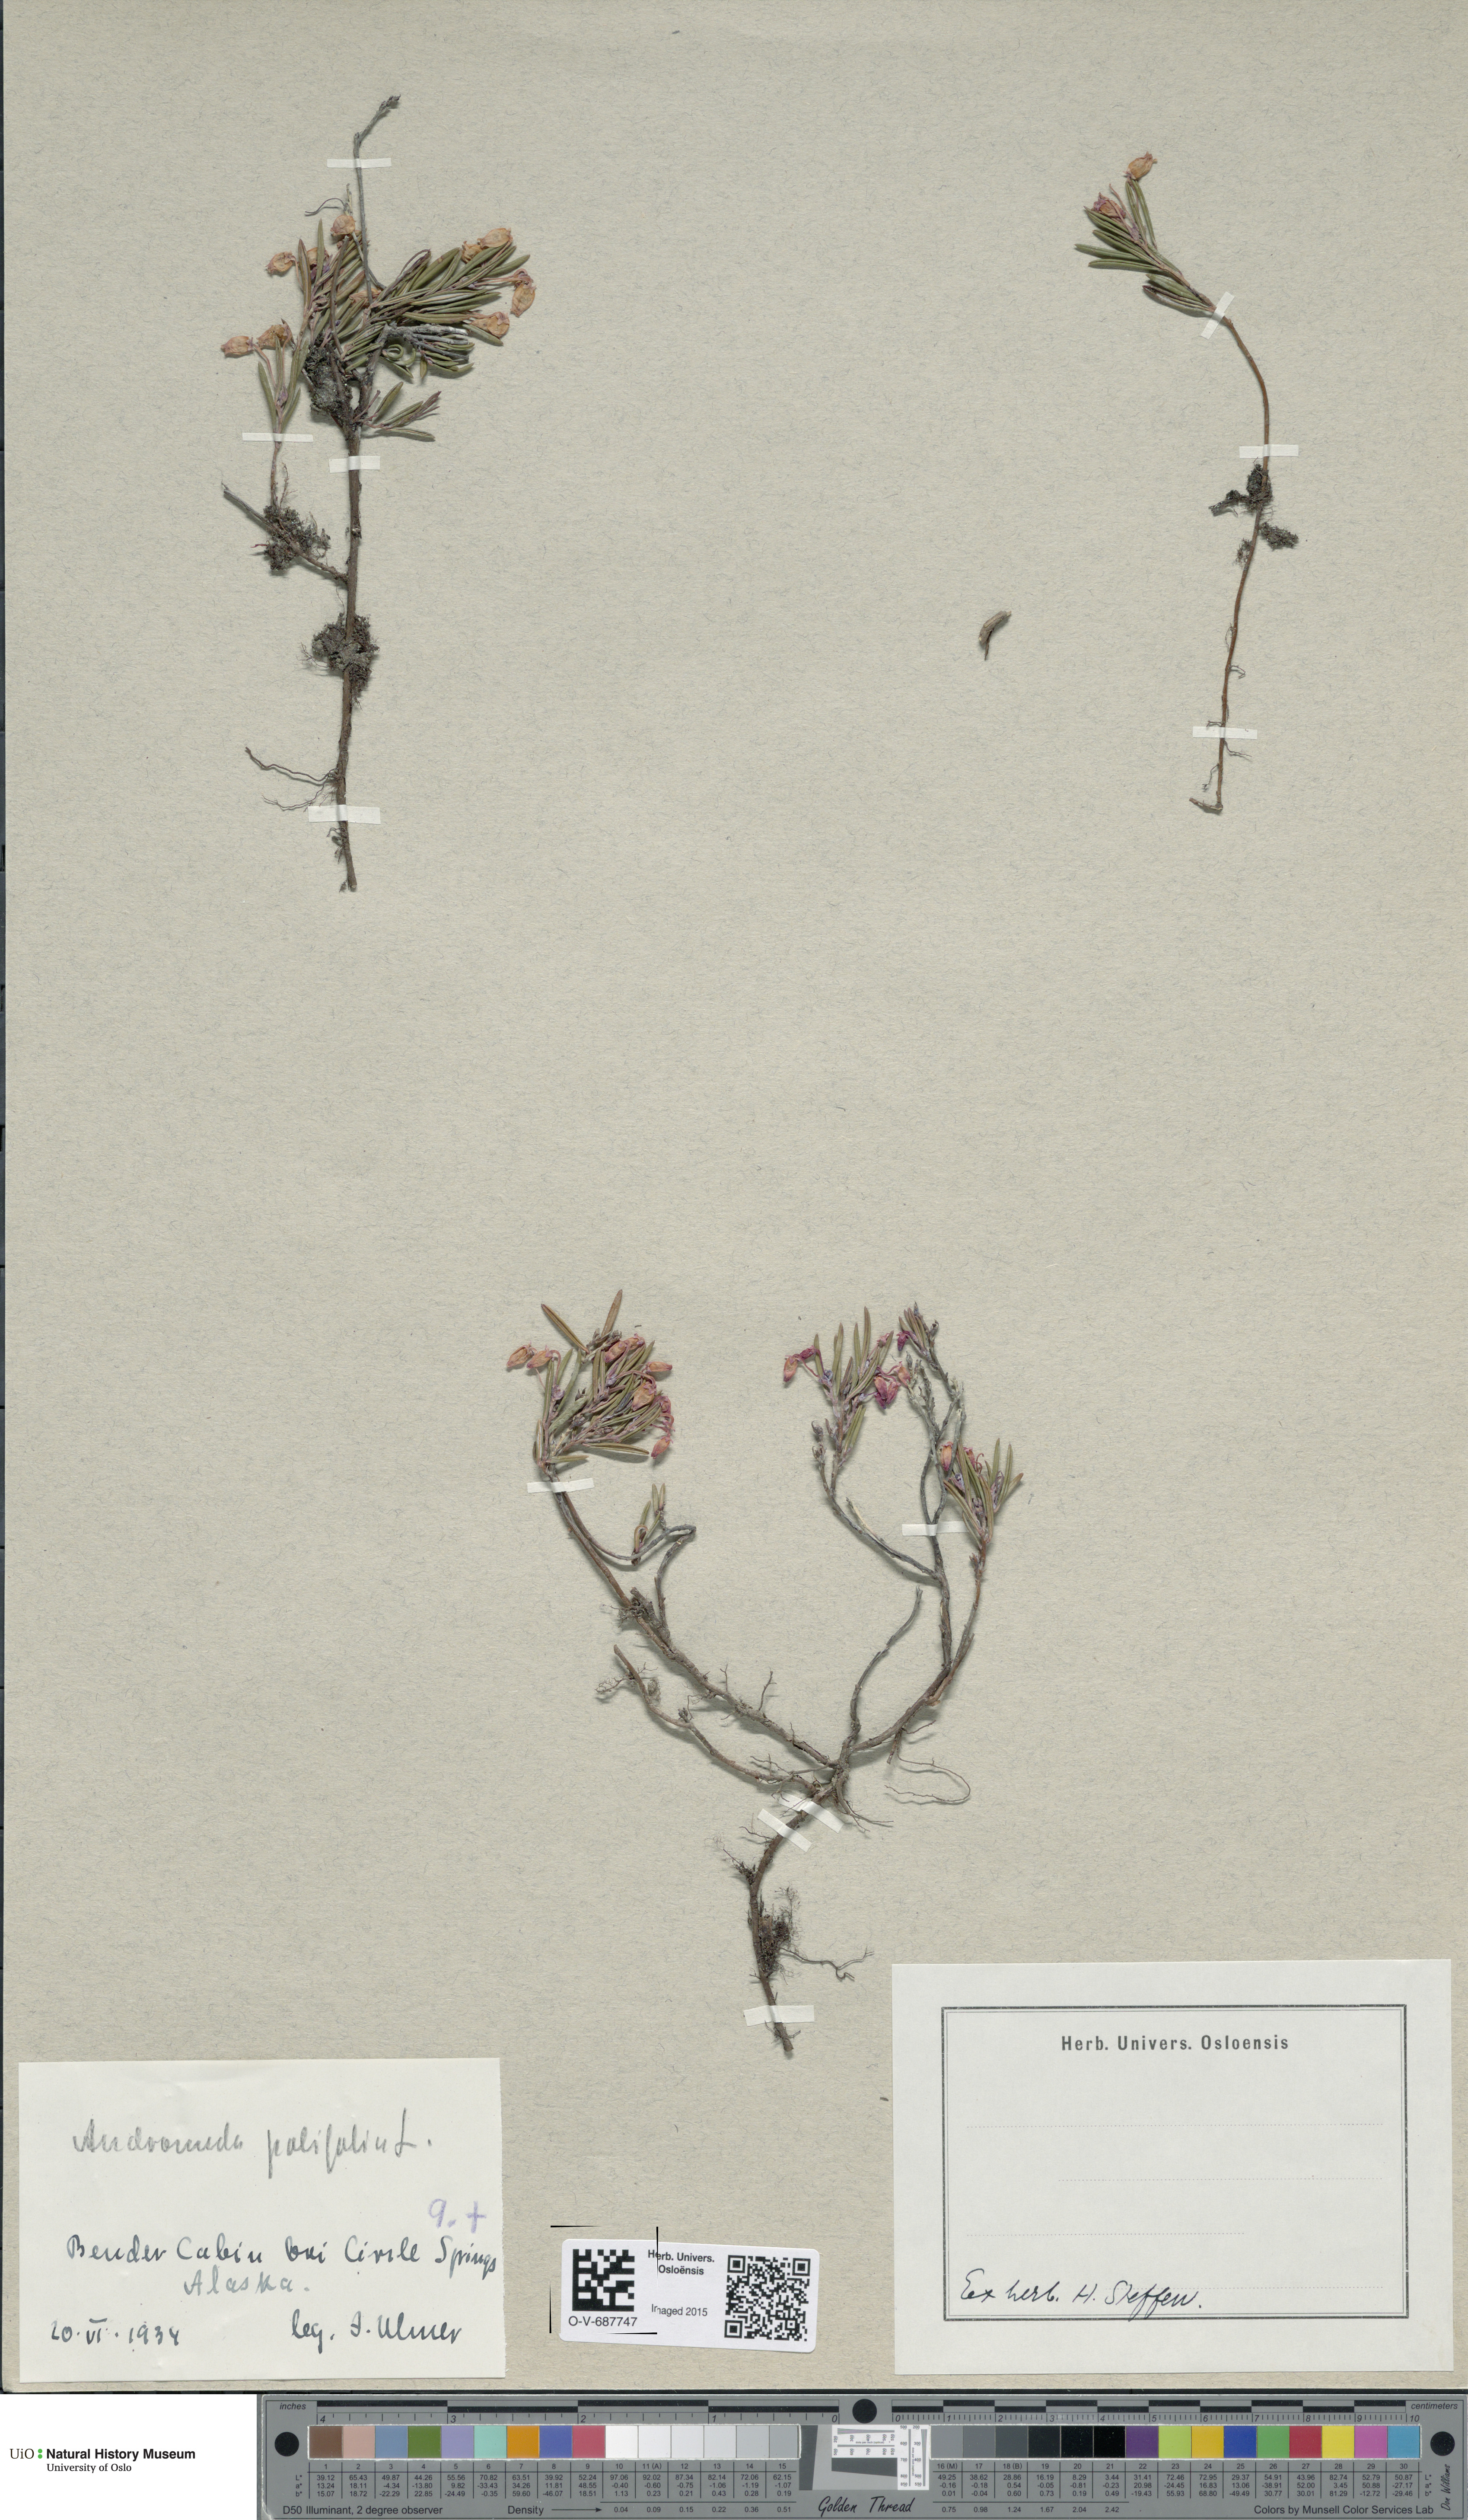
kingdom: Plantae
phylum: Tracheophyta
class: Magnoliopsida
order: Ericales
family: Ericaceae
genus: Andromeda
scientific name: Andromeda polifolia
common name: Bog-rosemary
